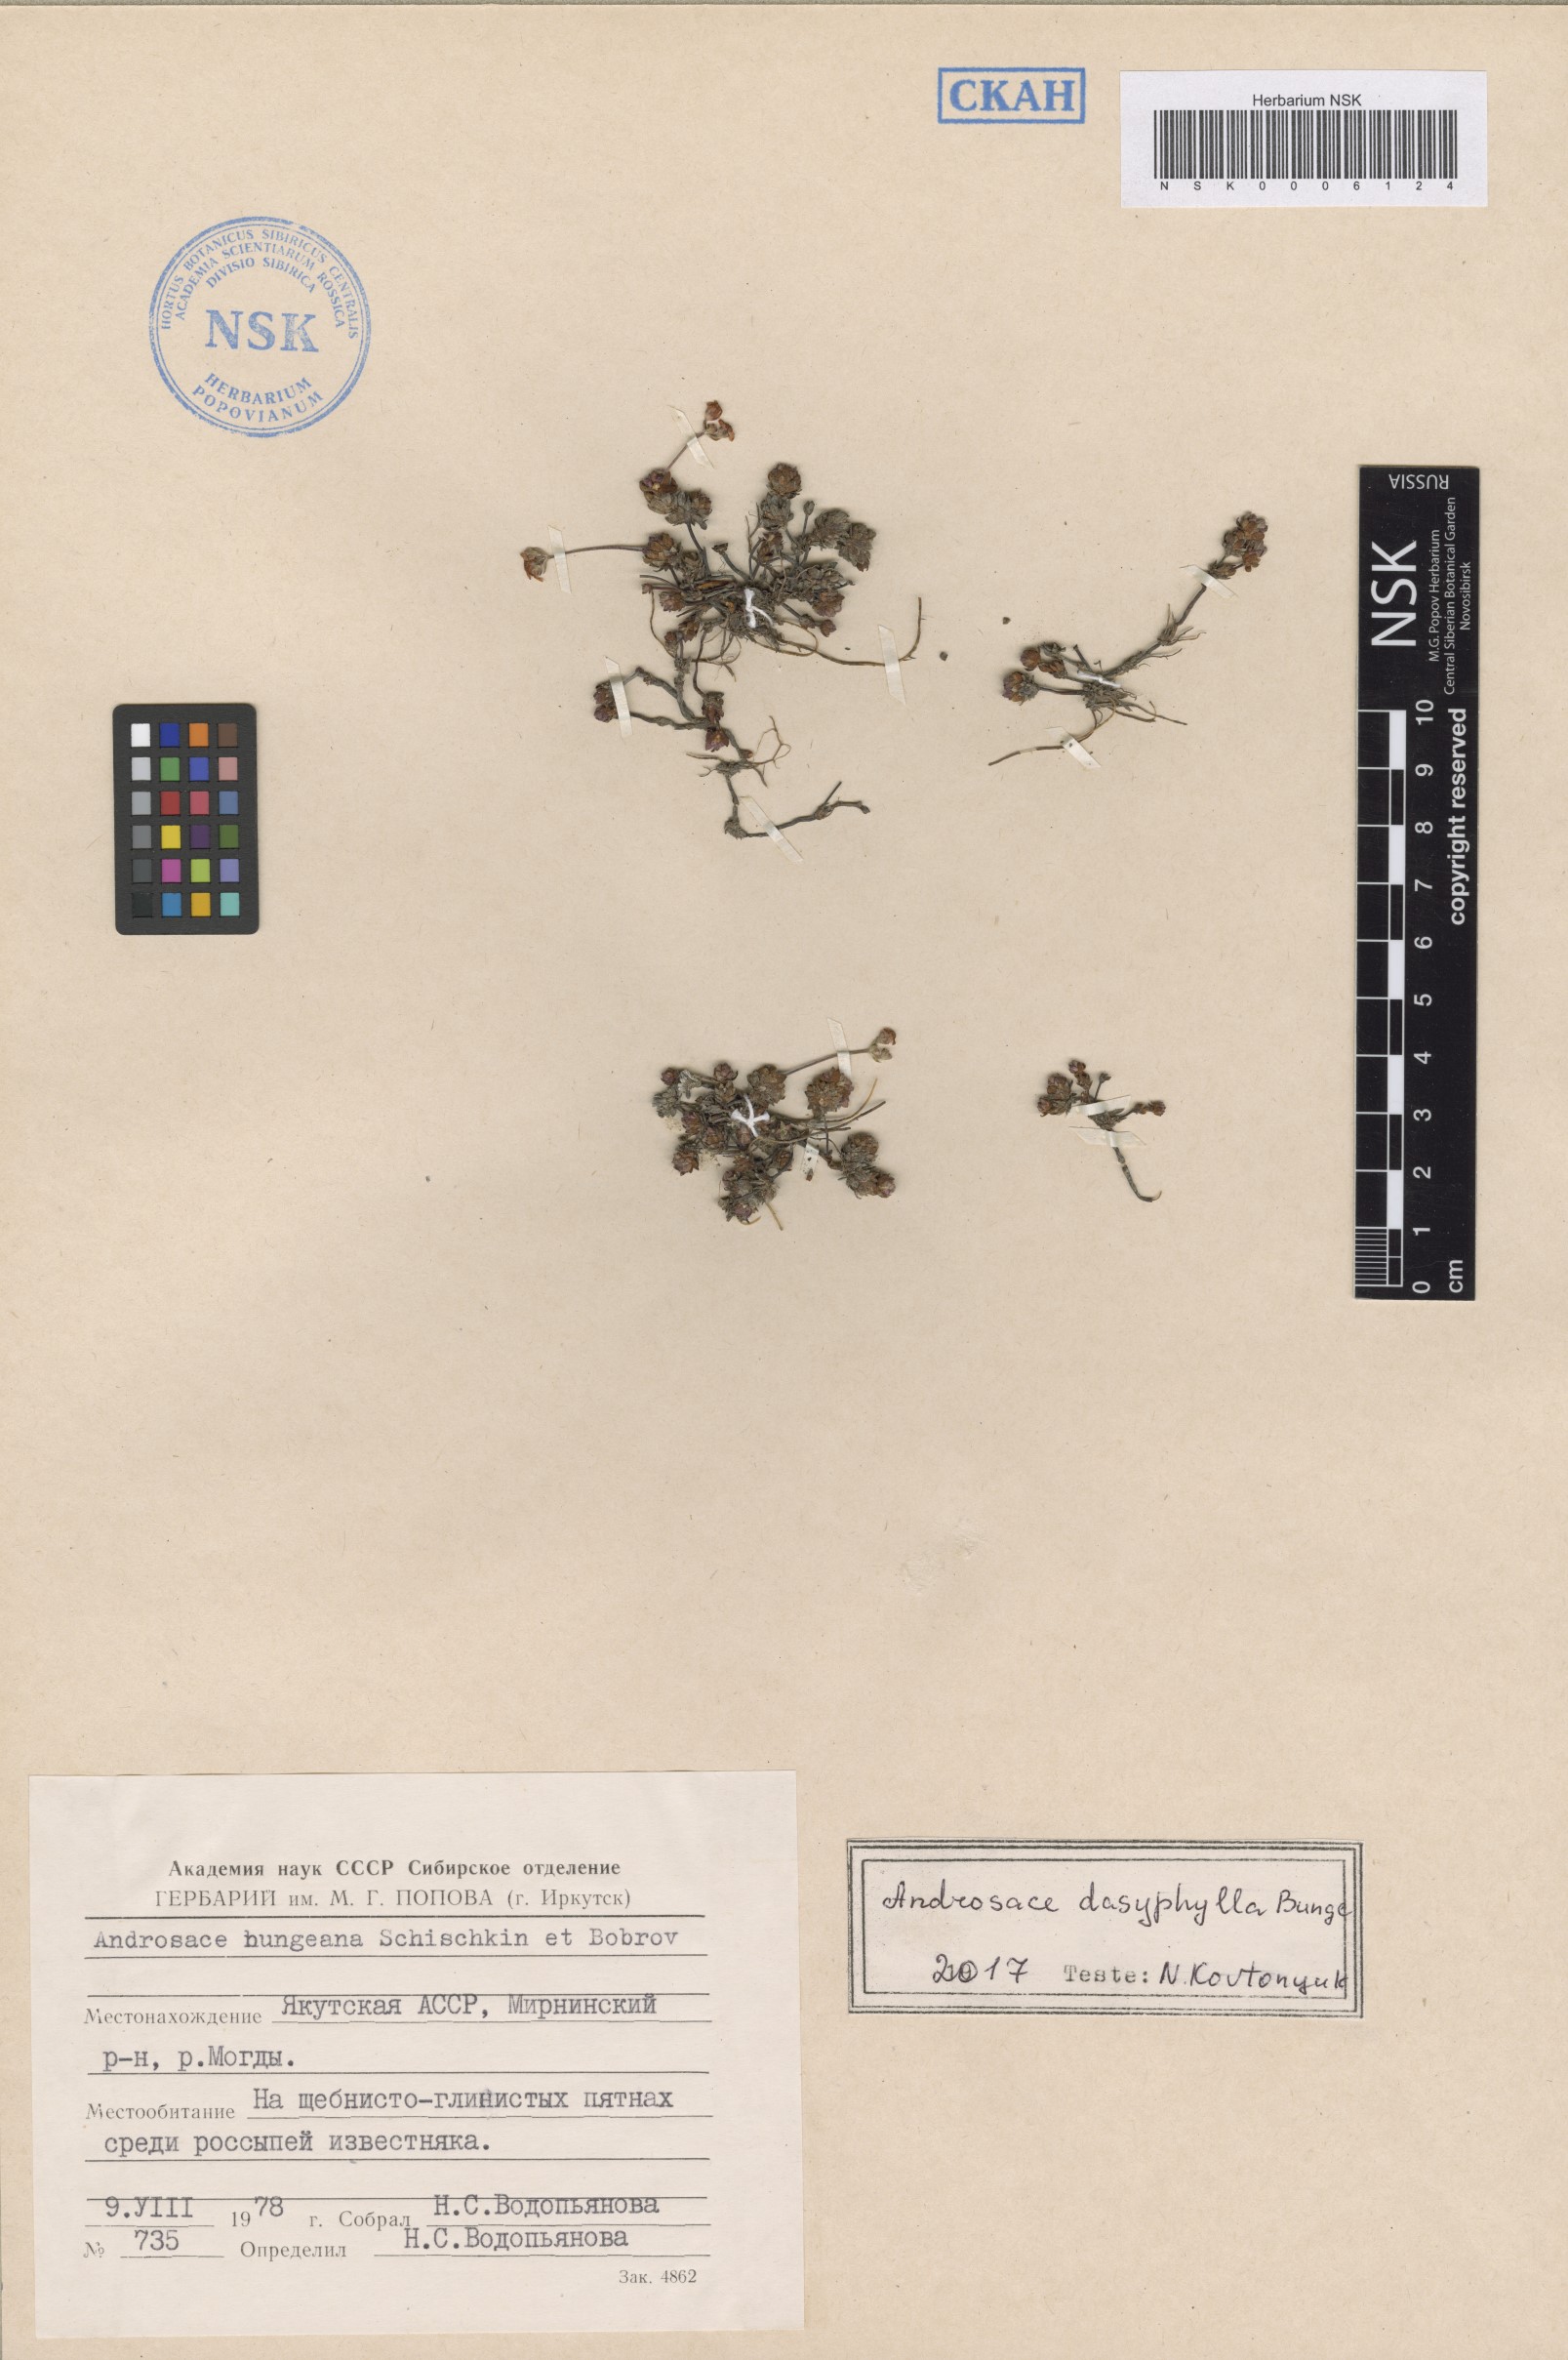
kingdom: Plantae
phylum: Tracheophyta
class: Magnoliopsida
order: Ericales
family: Primulaceae
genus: Androsace
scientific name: Androsace dasyphylla
